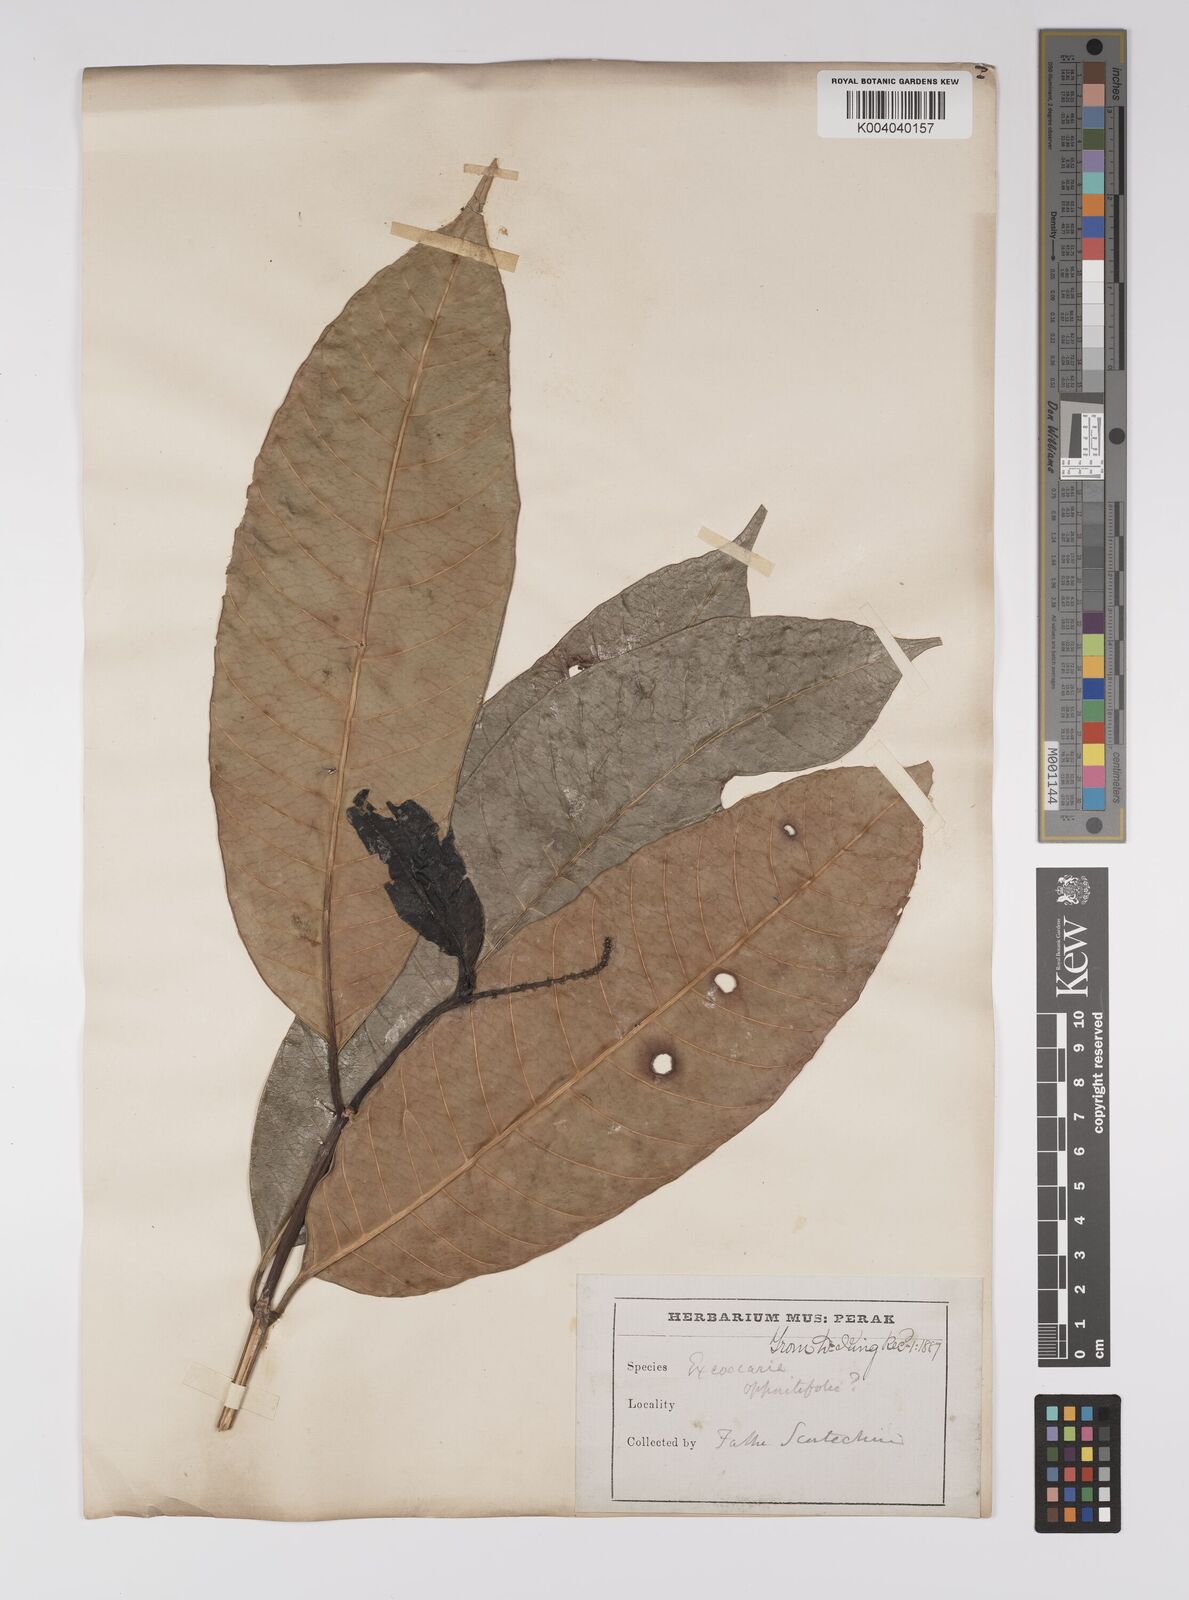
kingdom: Plantae
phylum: Tracheophyta
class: Magnoliopsida
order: Malpighiales
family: Euphorbiaceae
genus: Excoecaria
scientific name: Excoecaria oppositifolia
